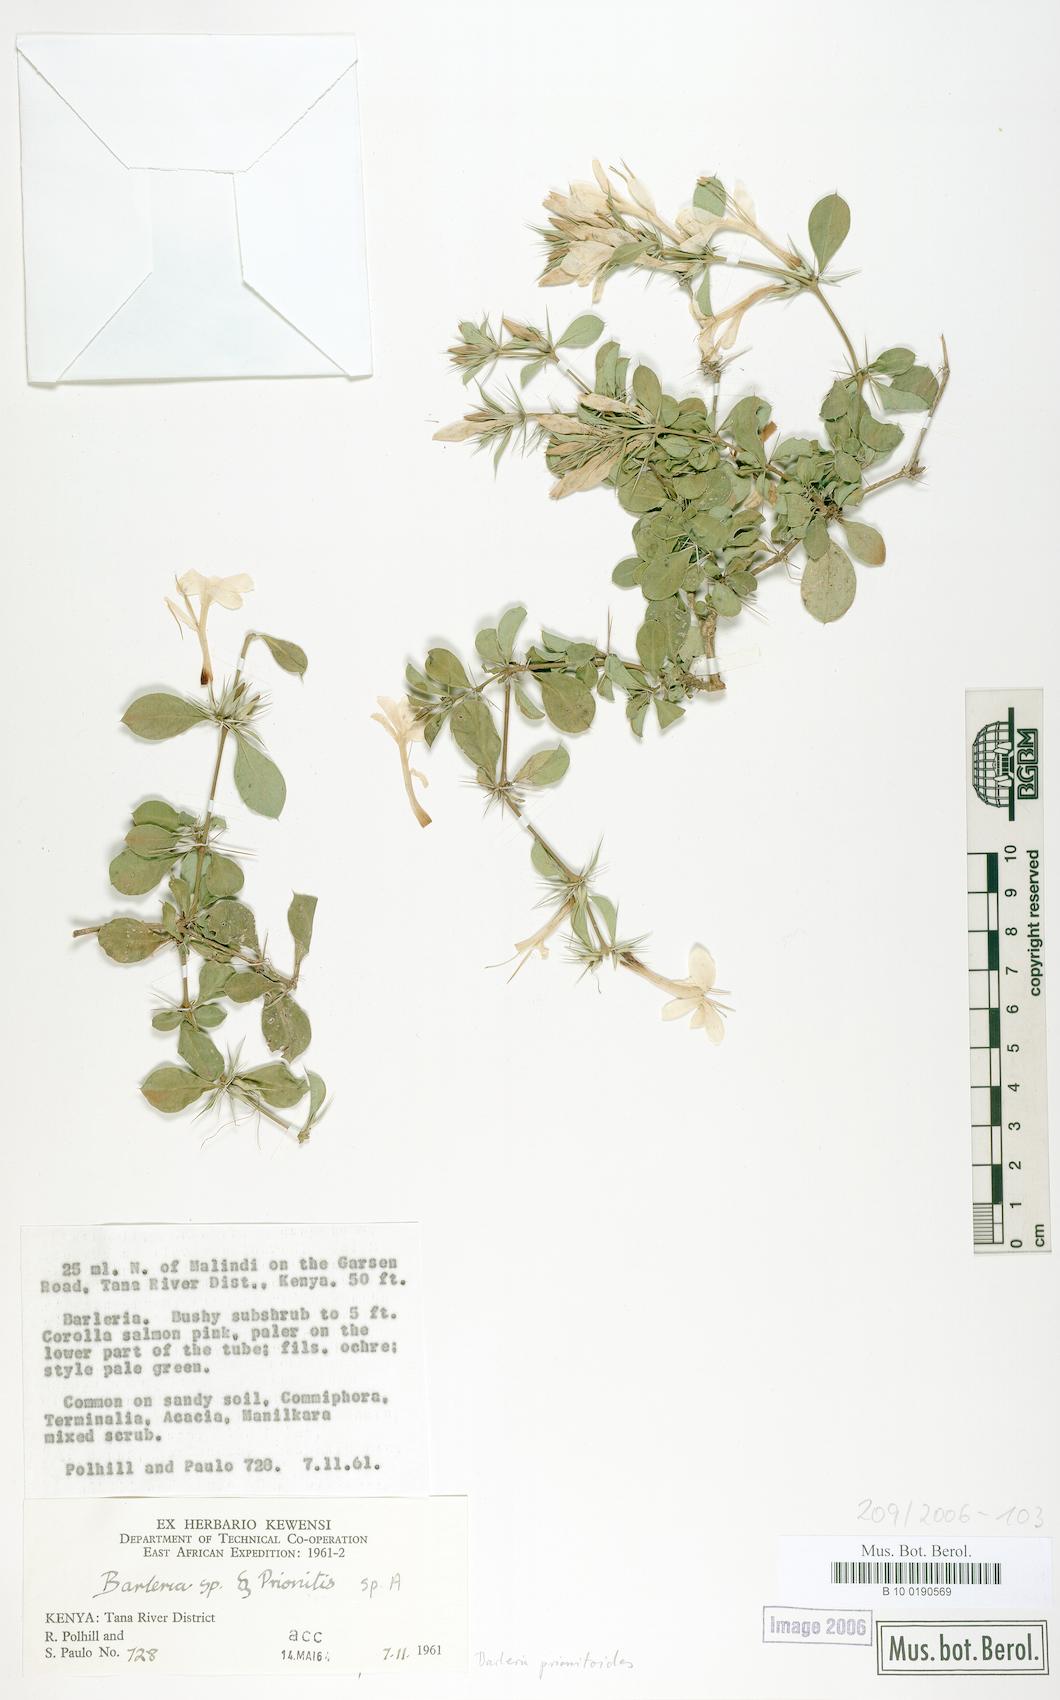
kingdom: Plantae
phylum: Tracheophyta
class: Magnoliopsida
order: Lamiales
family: Acanthaceae
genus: Barleria
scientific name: Barleria prionitis
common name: Barleria
